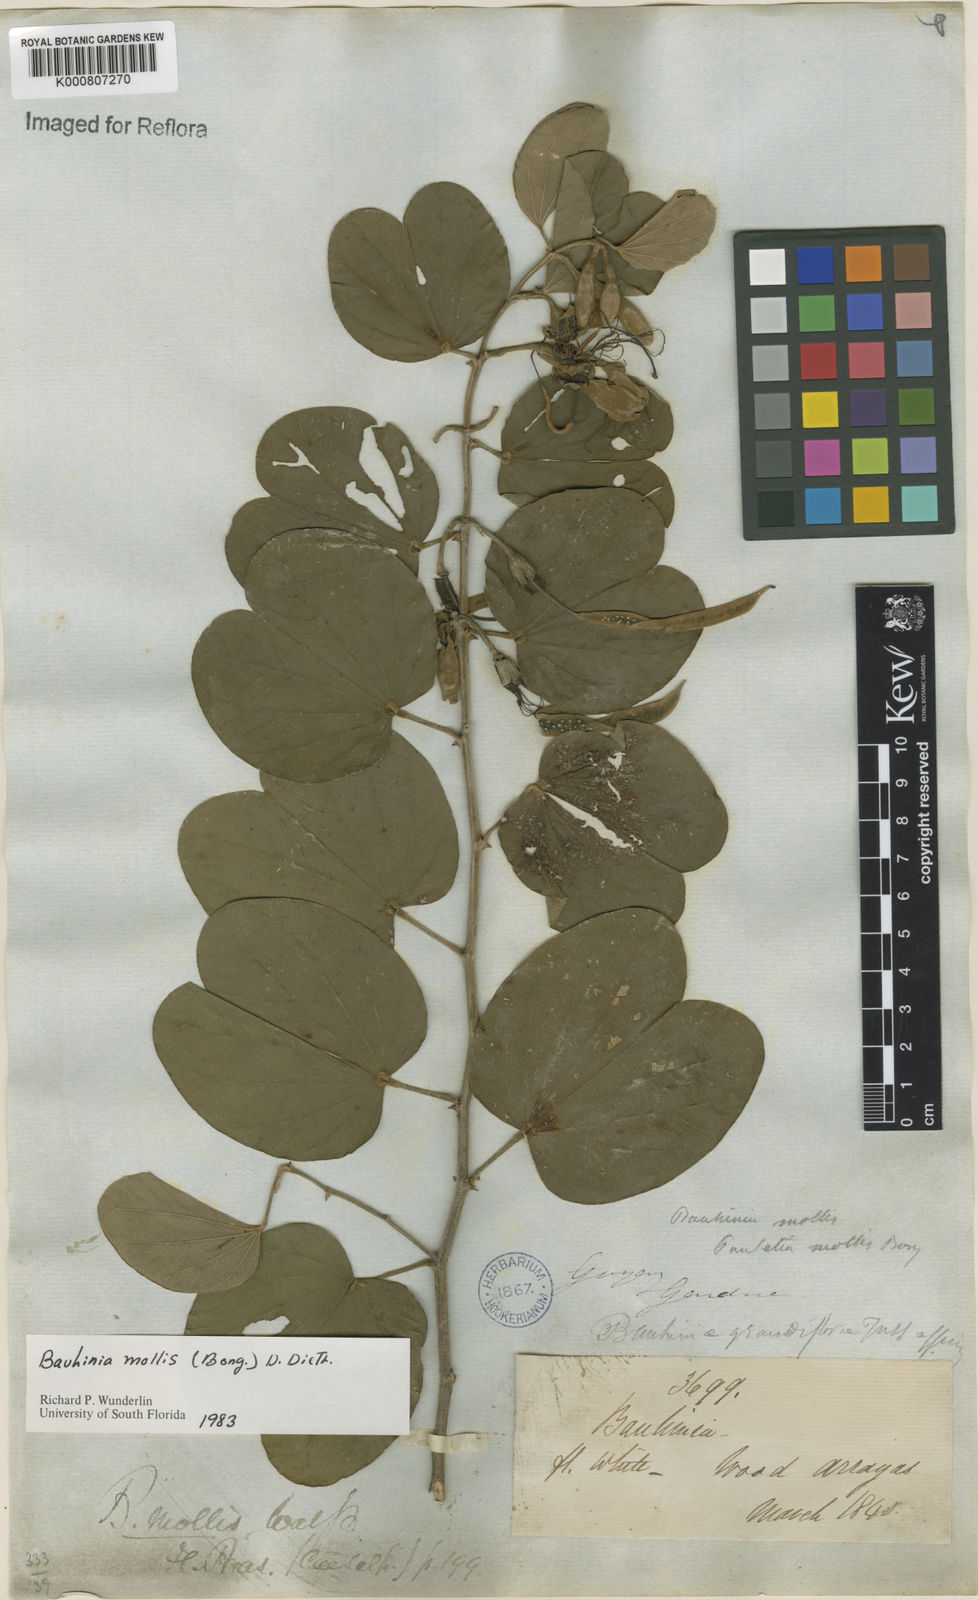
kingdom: Plantae
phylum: Tracheophyta
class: Magnoliopsida
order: Fabales
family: Fabaceae
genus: Bauhinia
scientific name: Bauhinia mollis
